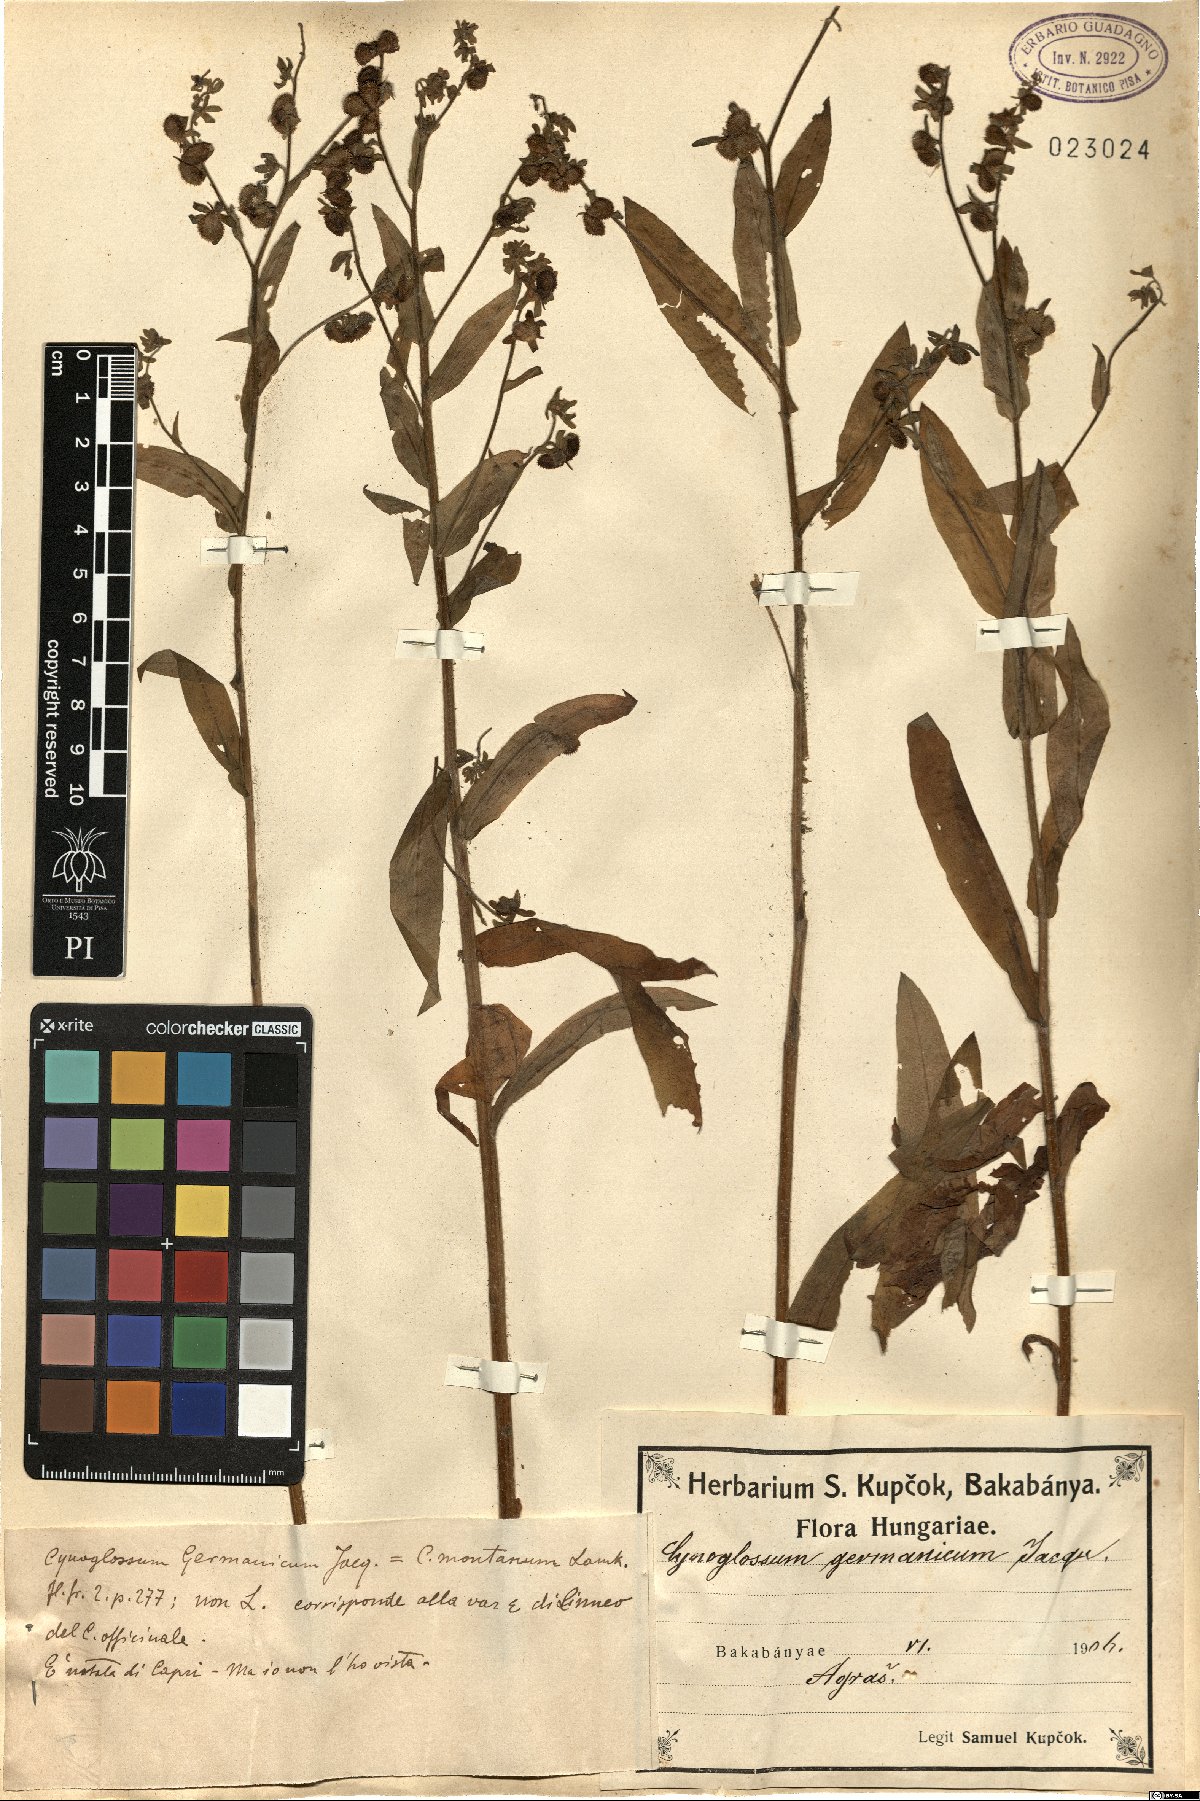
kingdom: Plantae
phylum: Tracheophyta
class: Magnoliopsida
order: Boraginales
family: Boraginaceae
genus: Cynoglossum
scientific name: Cynoglossum germanicum
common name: Green hound's-tongue
